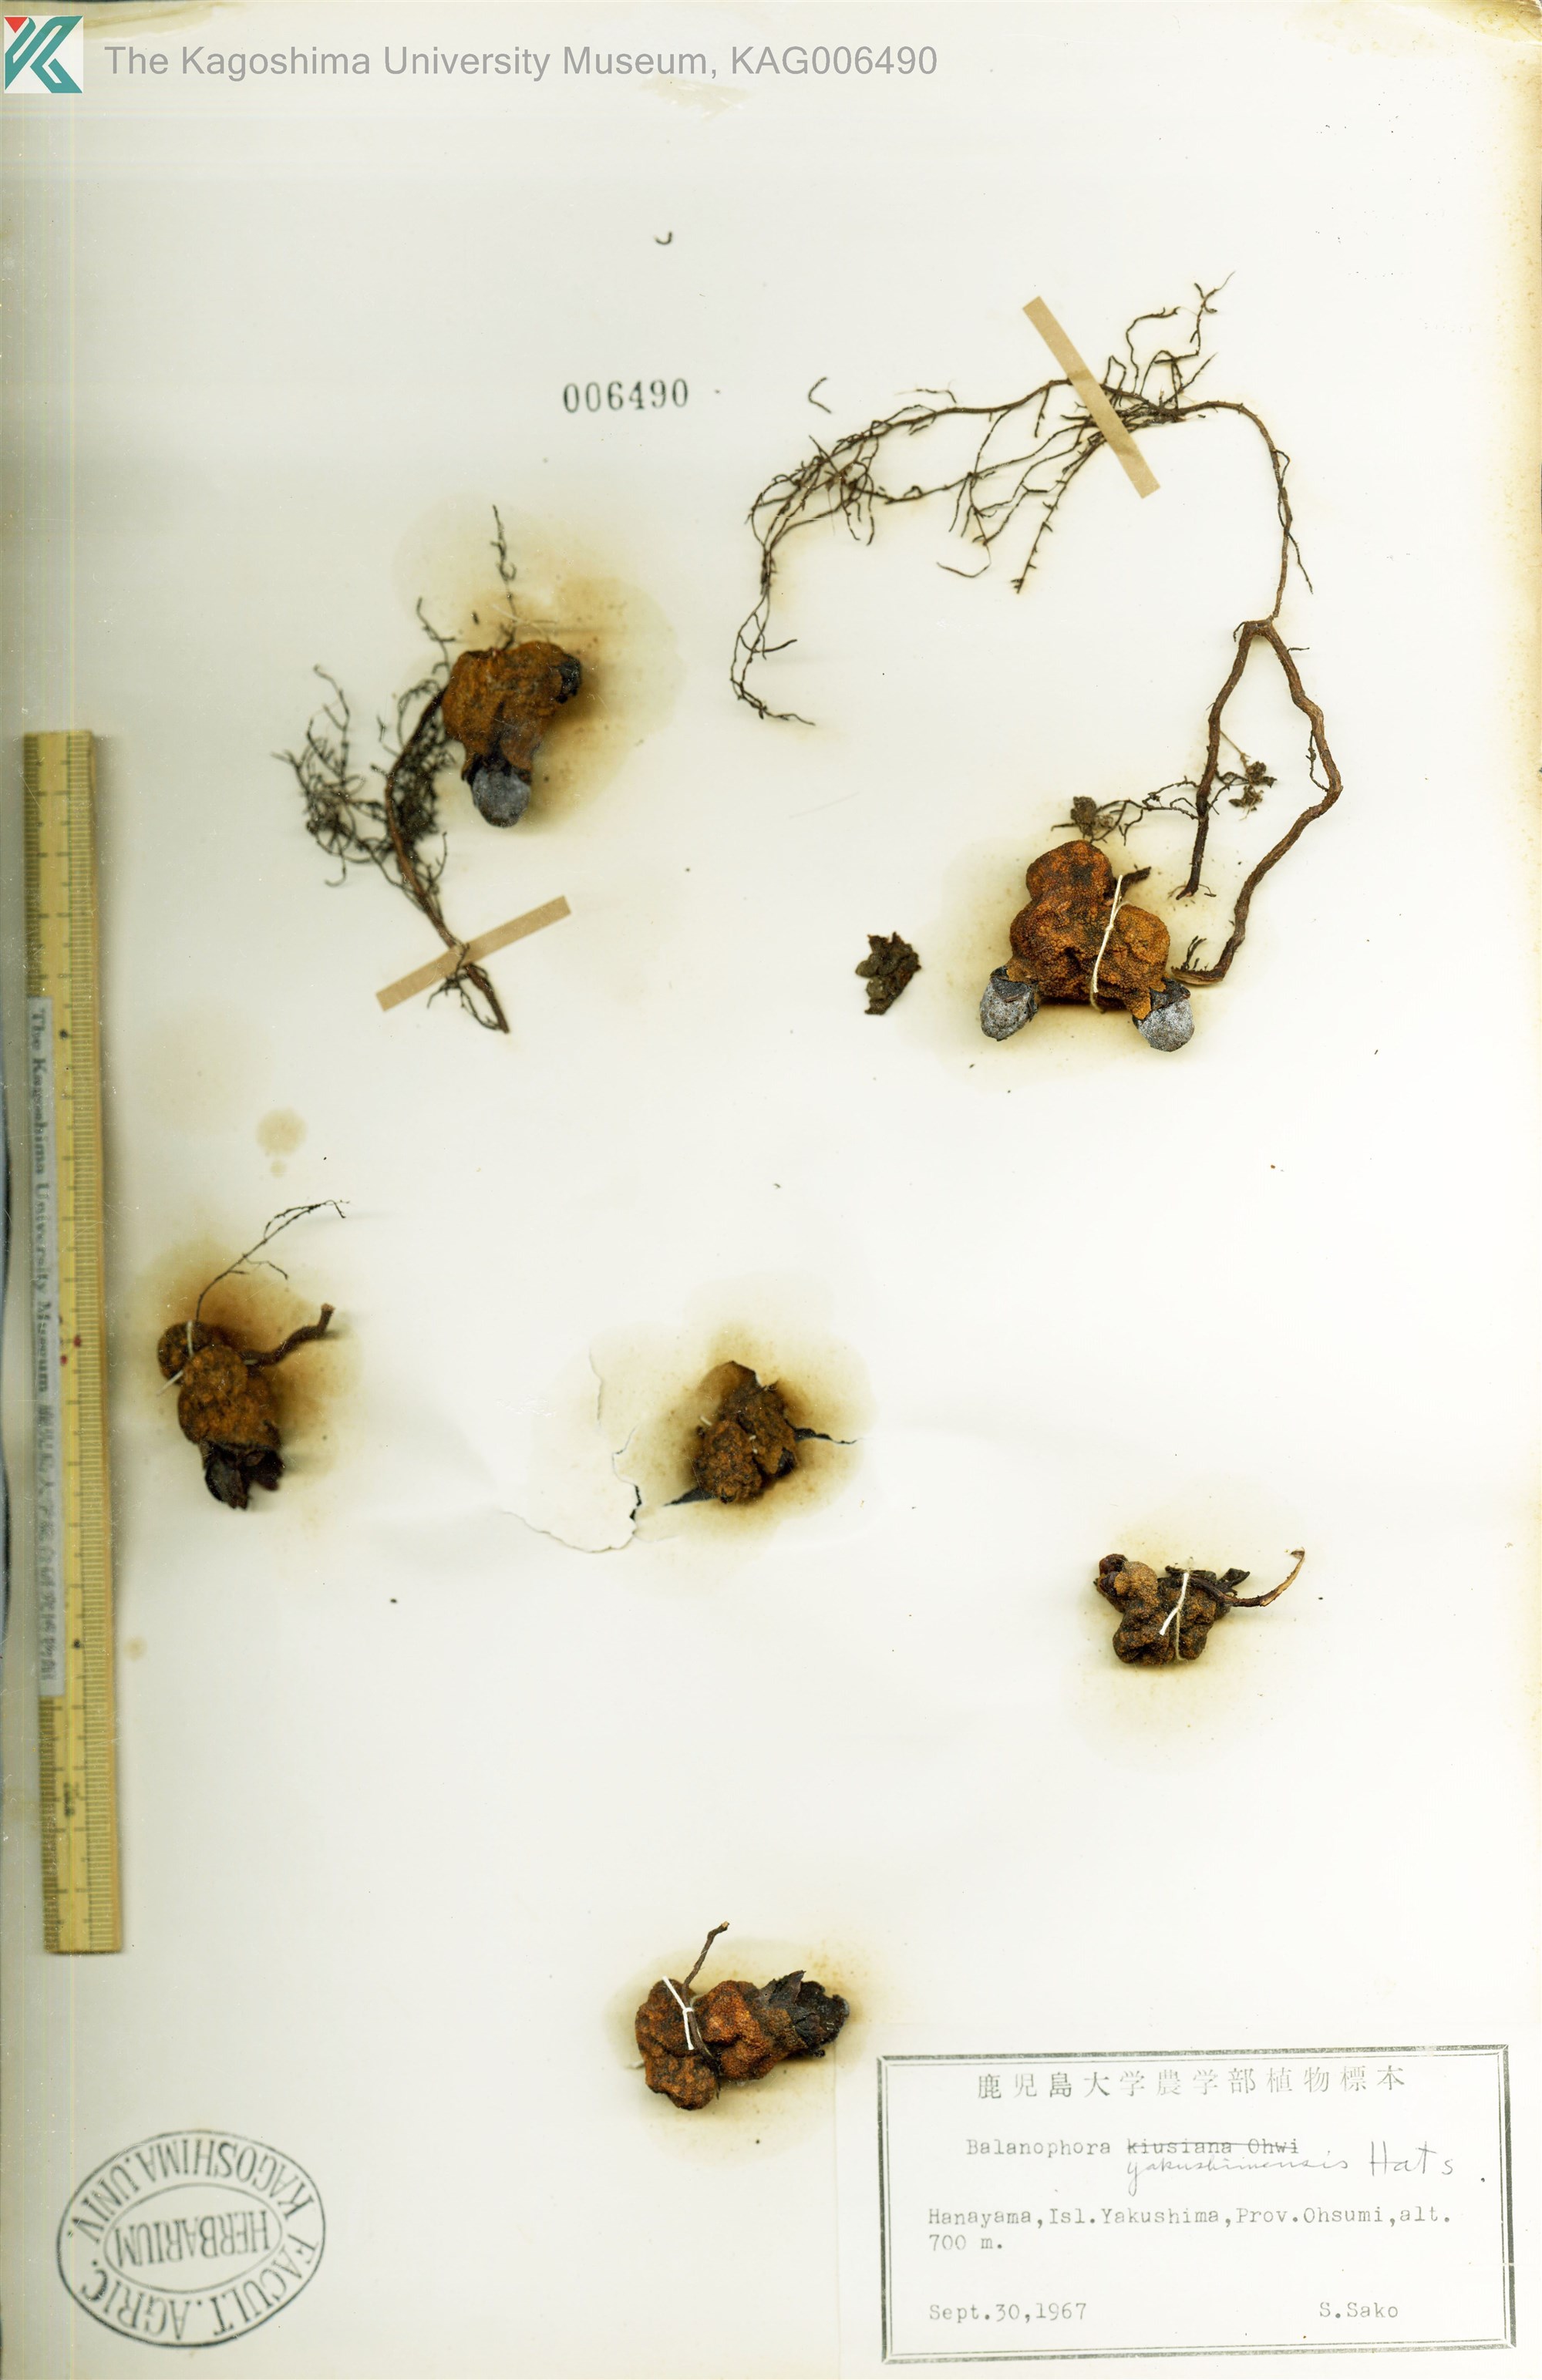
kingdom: Plantae
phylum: Tracheophyta
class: Magnoliopsida
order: Santalales
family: Balanophoraceae
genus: Balanophora
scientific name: Balanophora yakushimensis
